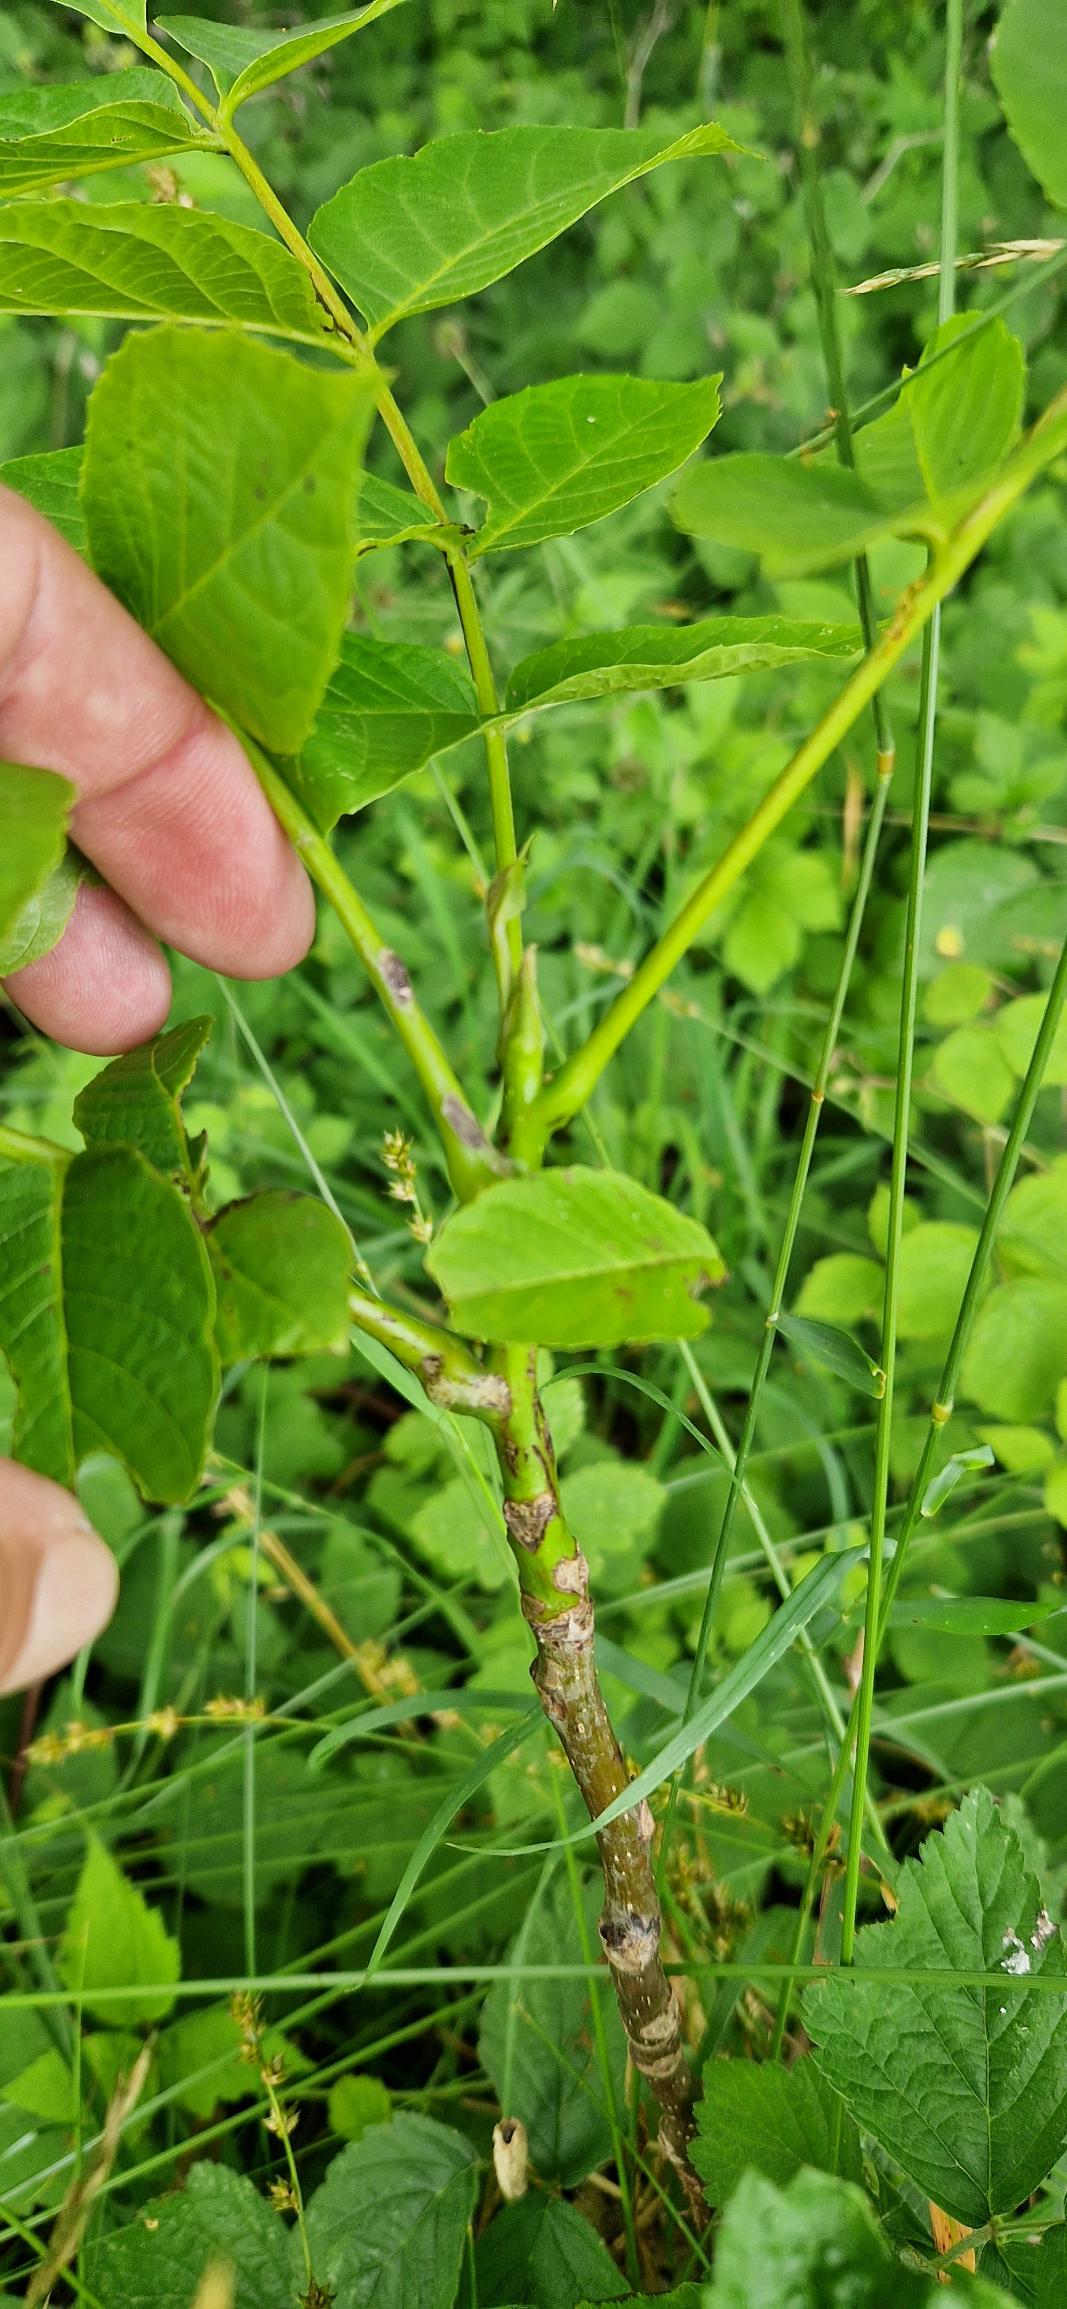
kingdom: Plantae
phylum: Tracheophyta
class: Magnoliopsida
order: Fagales
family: Juglandaceae
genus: Juglans
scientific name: Juglans regia
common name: Almindelig valnød
